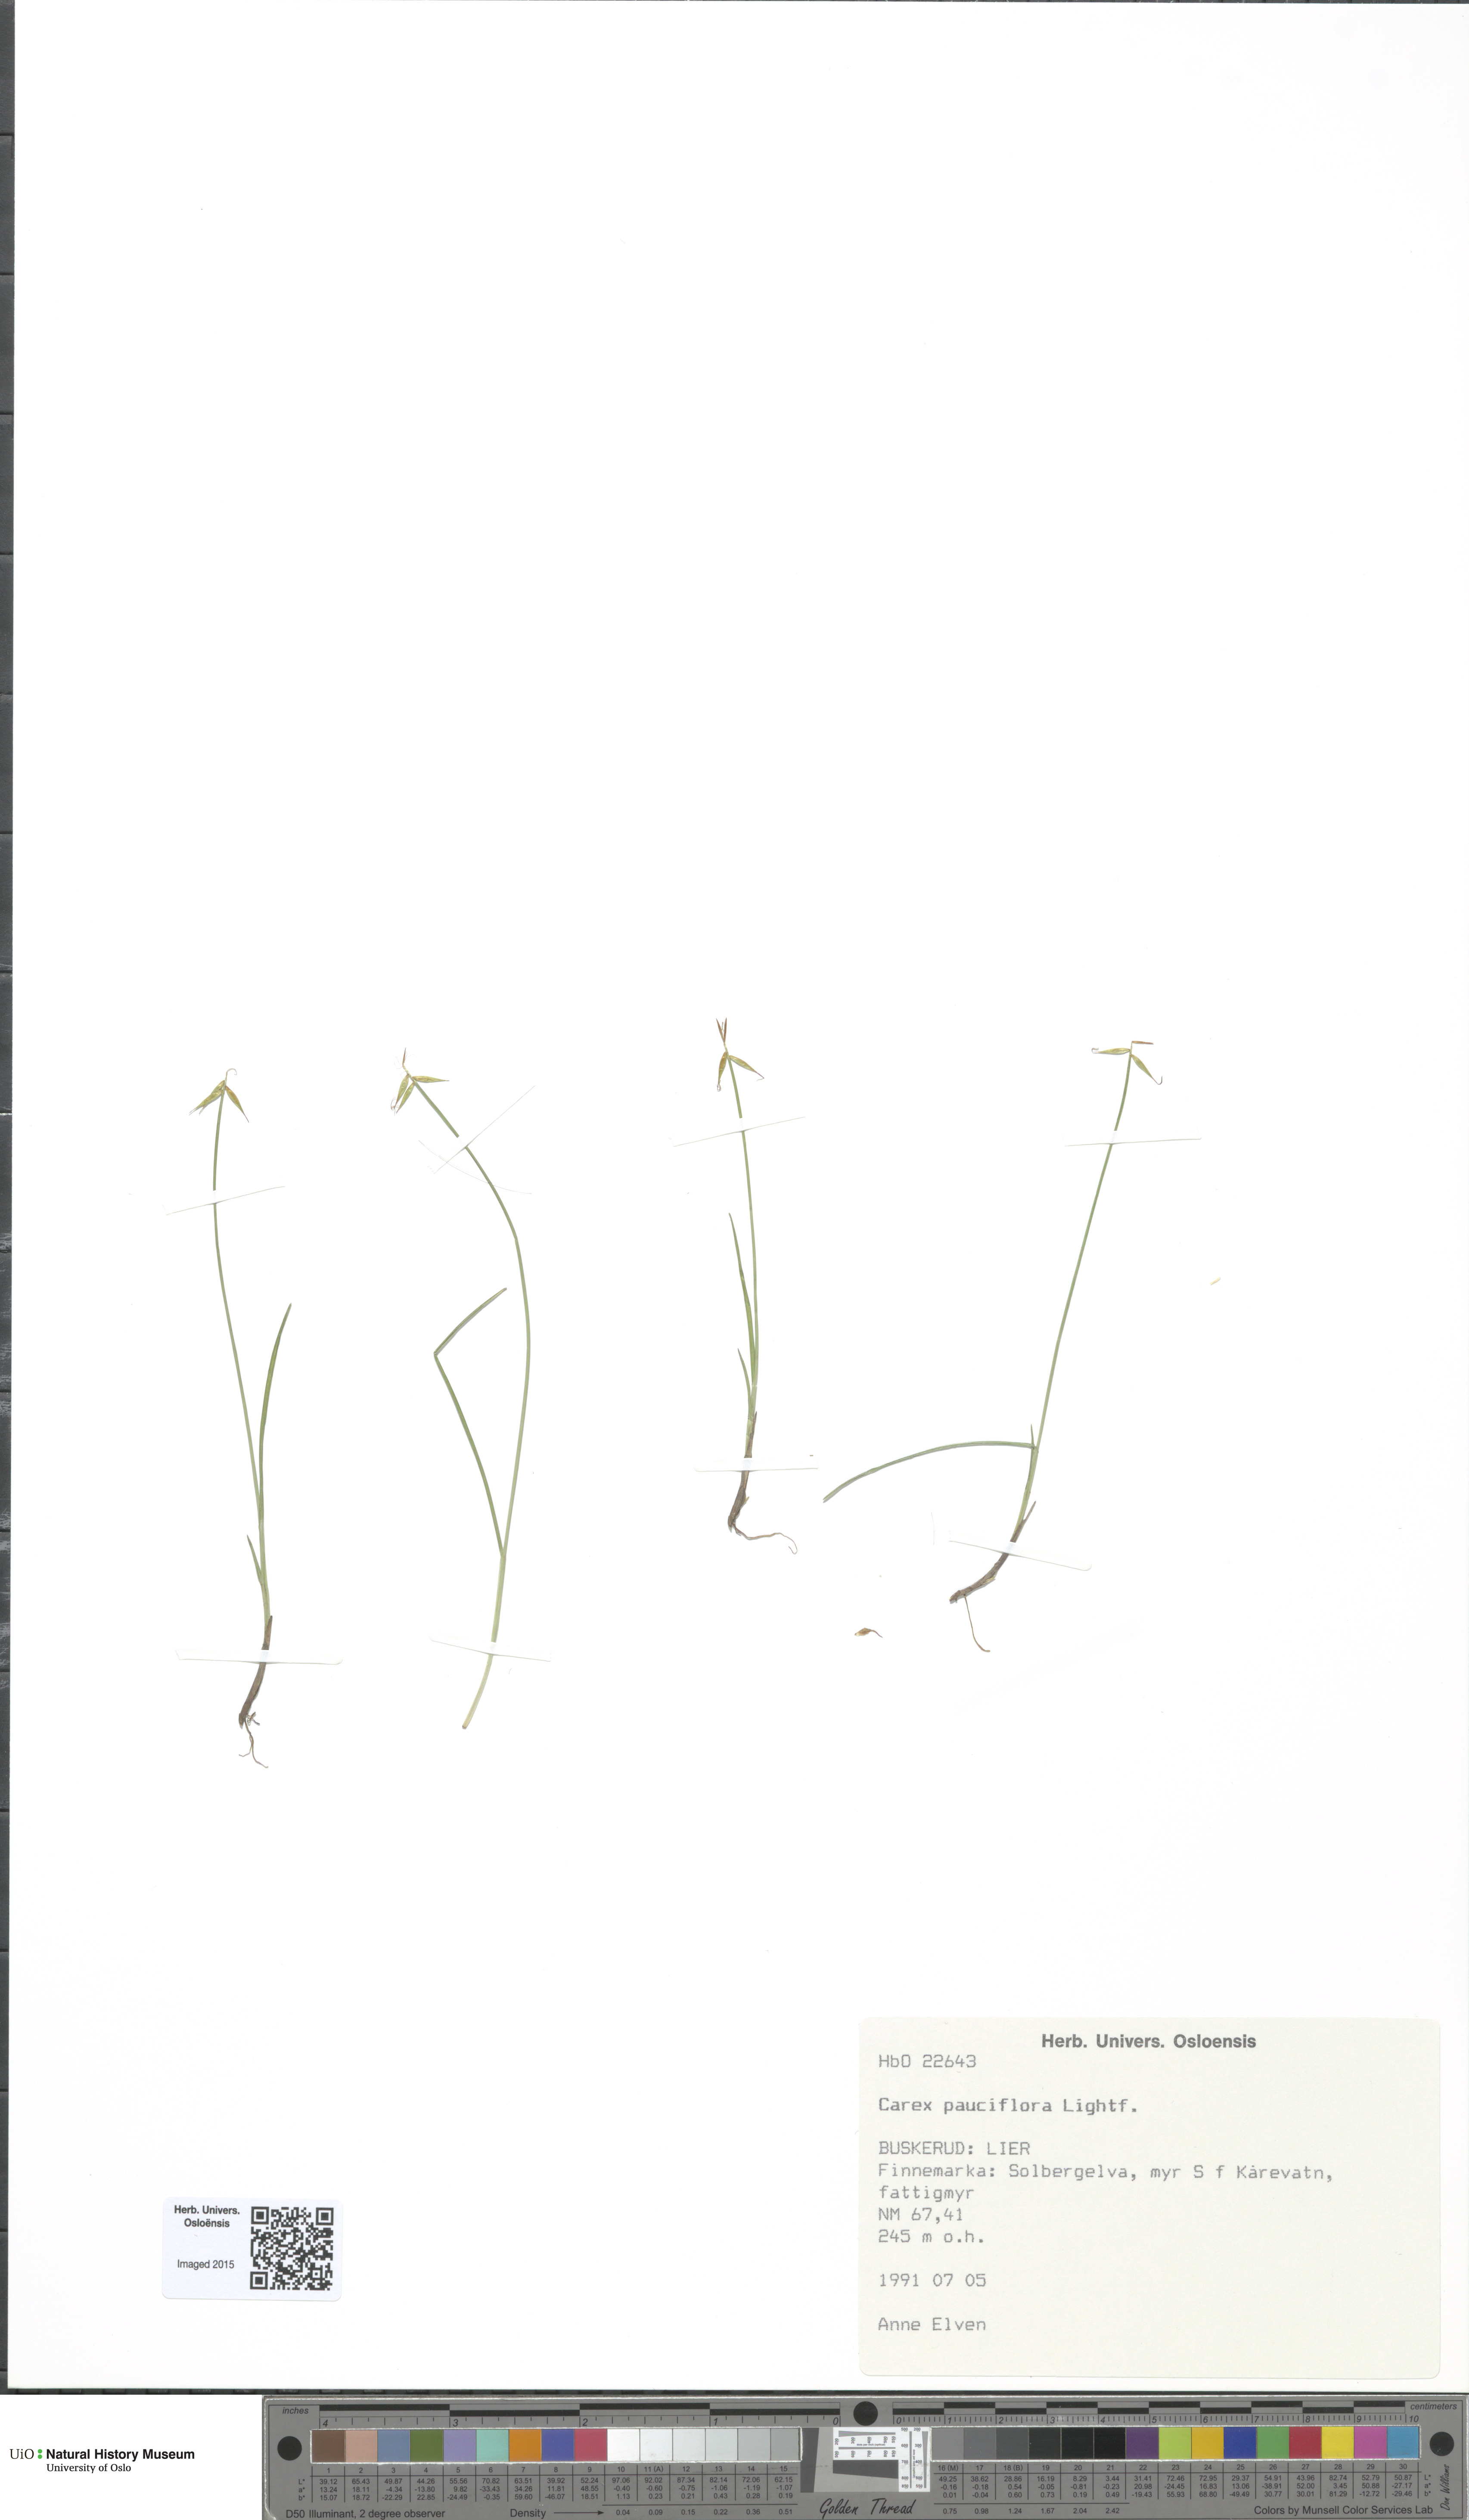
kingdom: Plantae
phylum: Tracheophyta
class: Liliopsida
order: Poales
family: Cyperaceae
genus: Carex
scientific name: Carex pauciflora
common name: Few-flowered sedge
